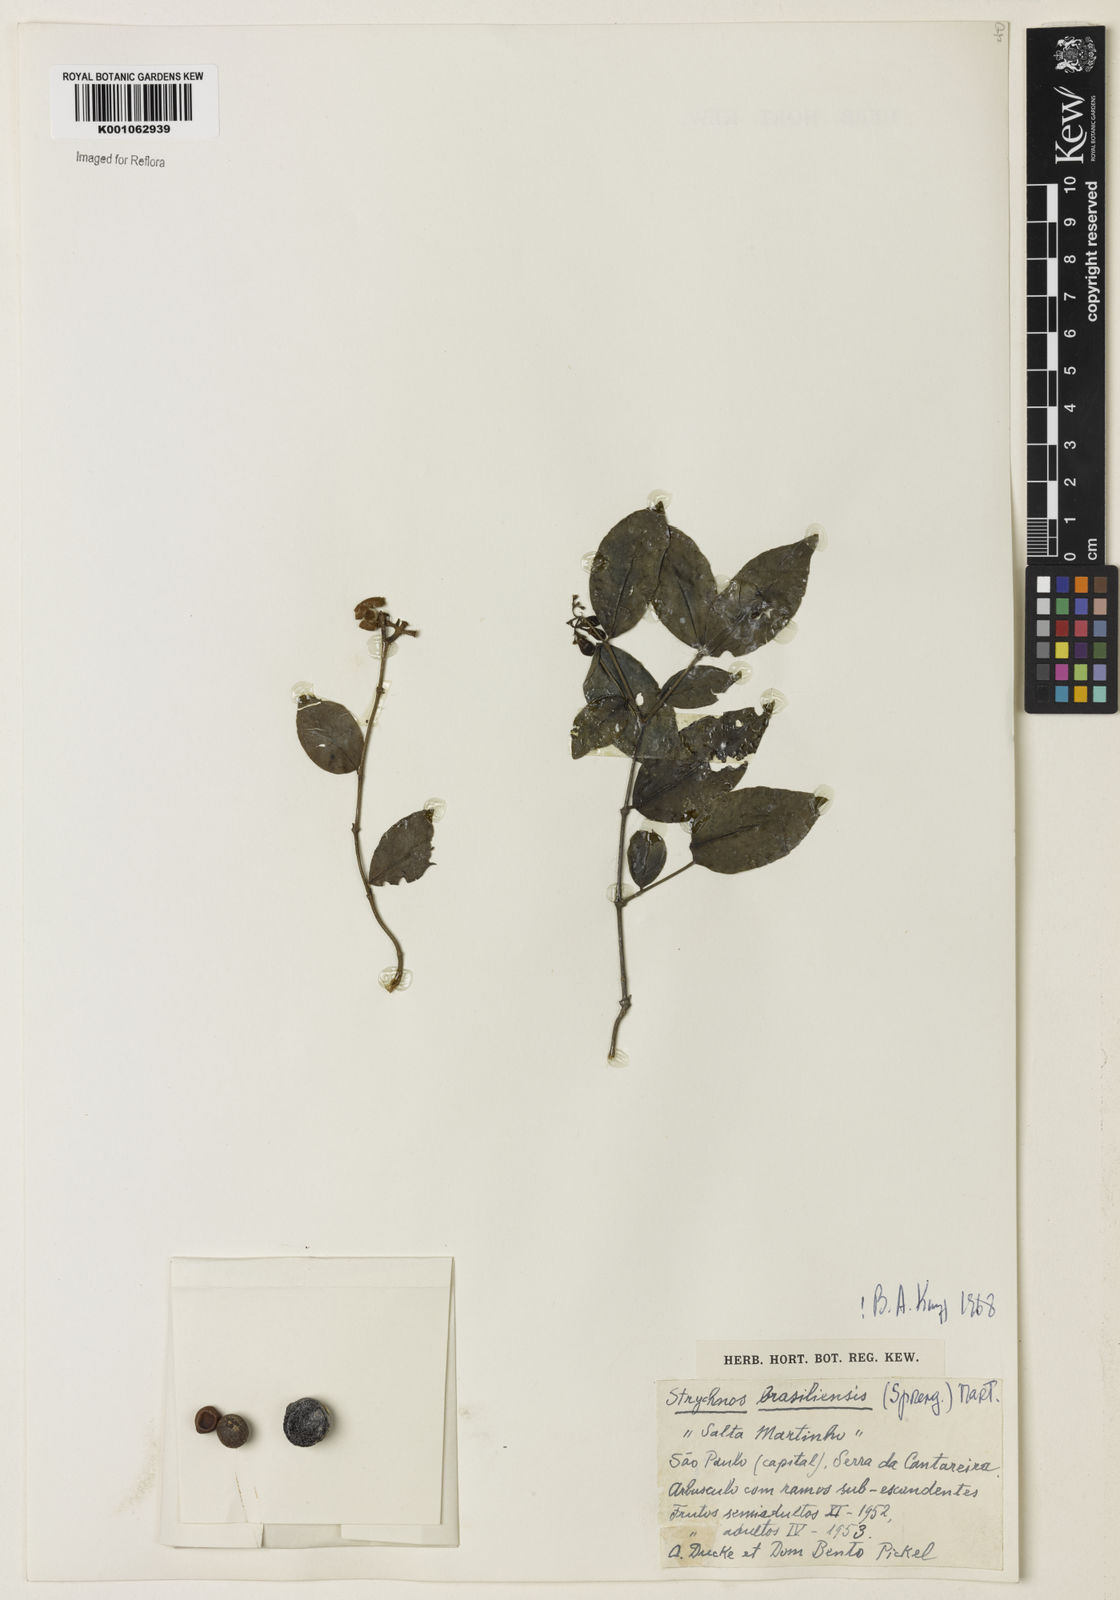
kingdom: Plantae
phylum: Tracheophyta
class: Magnoliopsida
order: Gentianales
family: Loganiaceae
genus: Strychnos
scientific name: Strychnos brasiliensis
